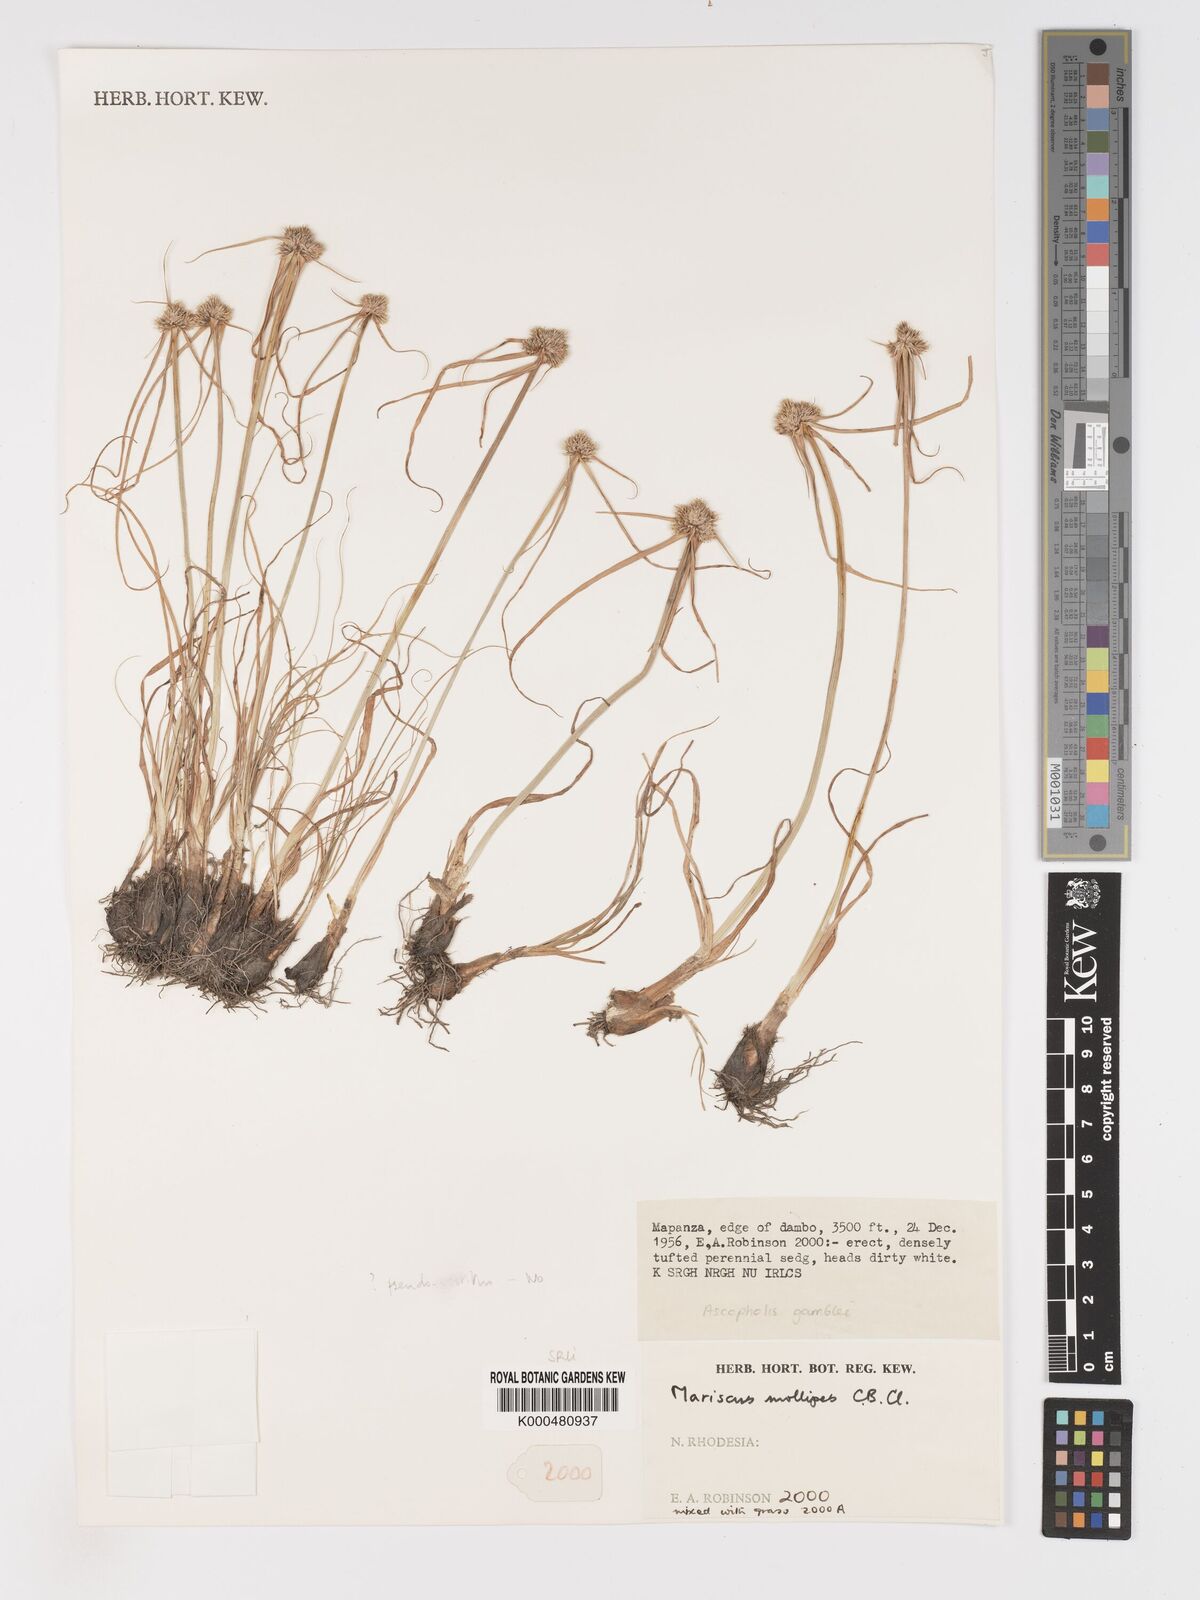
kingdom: Plantae
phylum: Tracheophyta
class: Liliopsida
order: Poales
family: Cyperaceae
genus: Cyperus
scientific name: Cyperus mollipes
